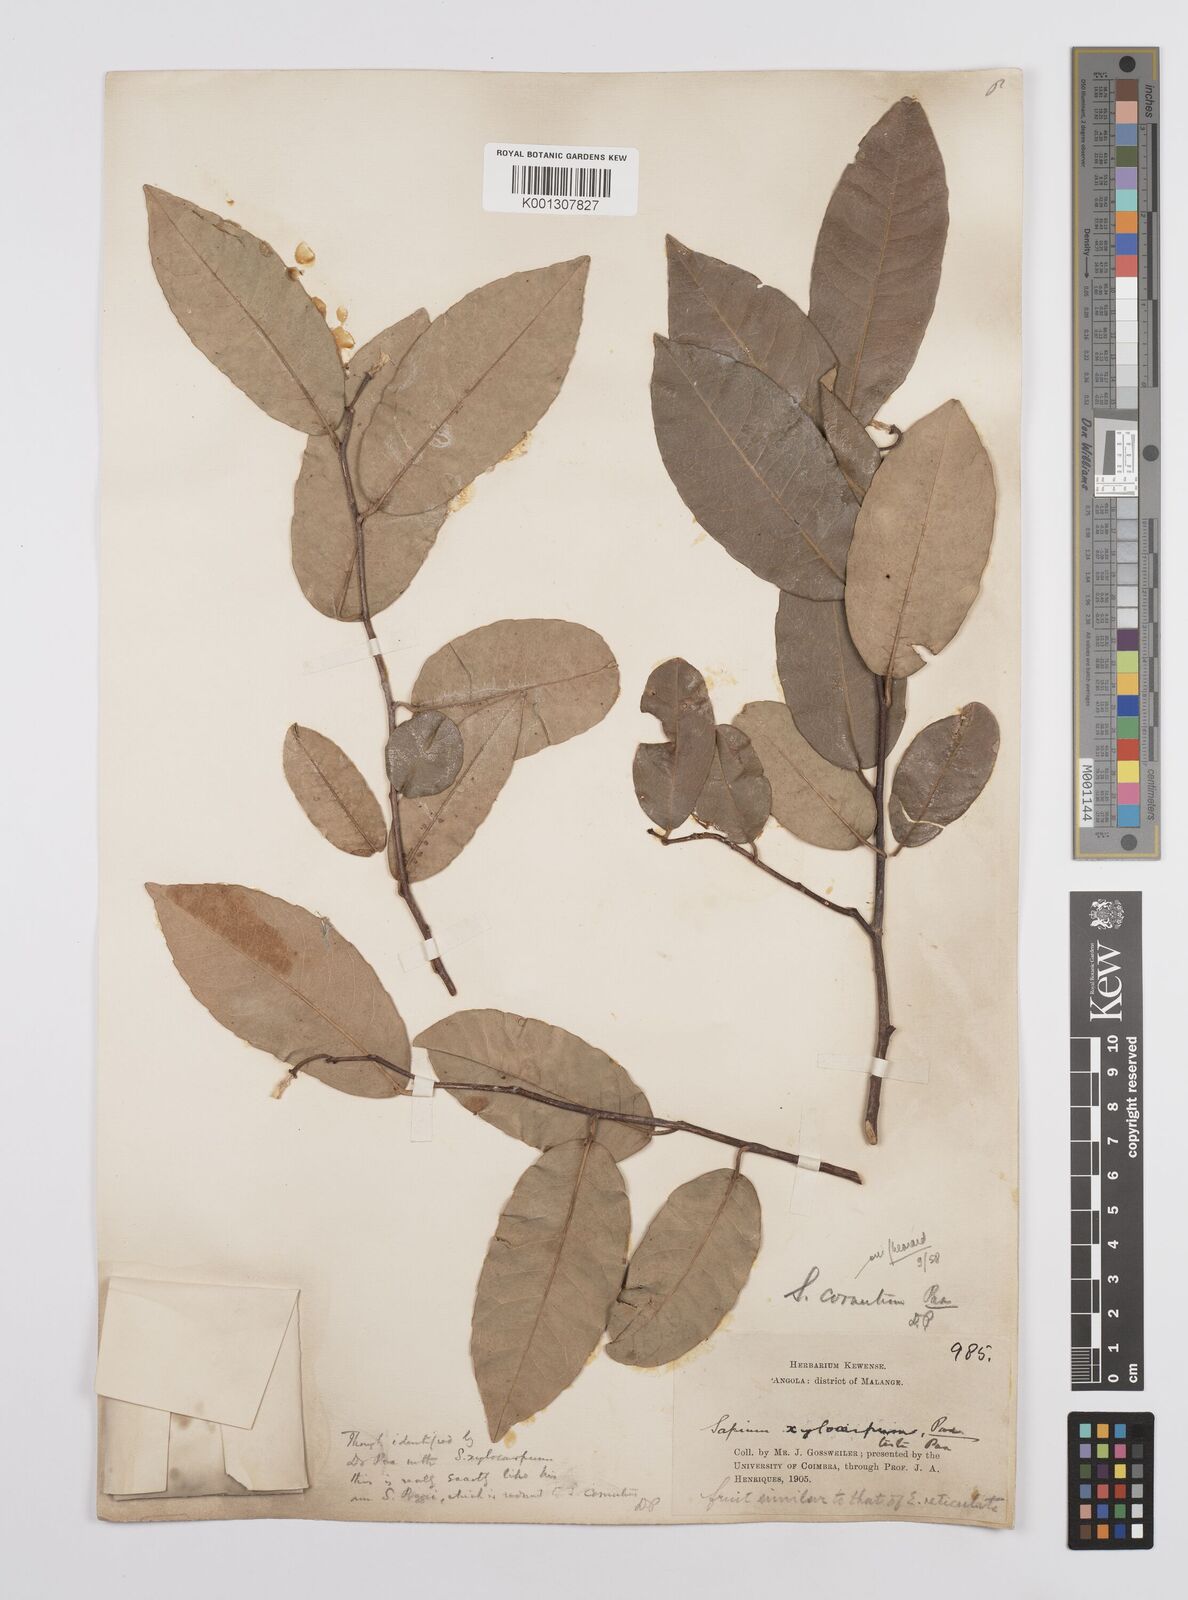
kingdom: Plantae
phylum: Tracheophyta
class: Magnoliopsida
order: Malpighiales
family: Euphorbiaceae
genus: Sclerocroton
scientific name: Sclerocroton cornutus
